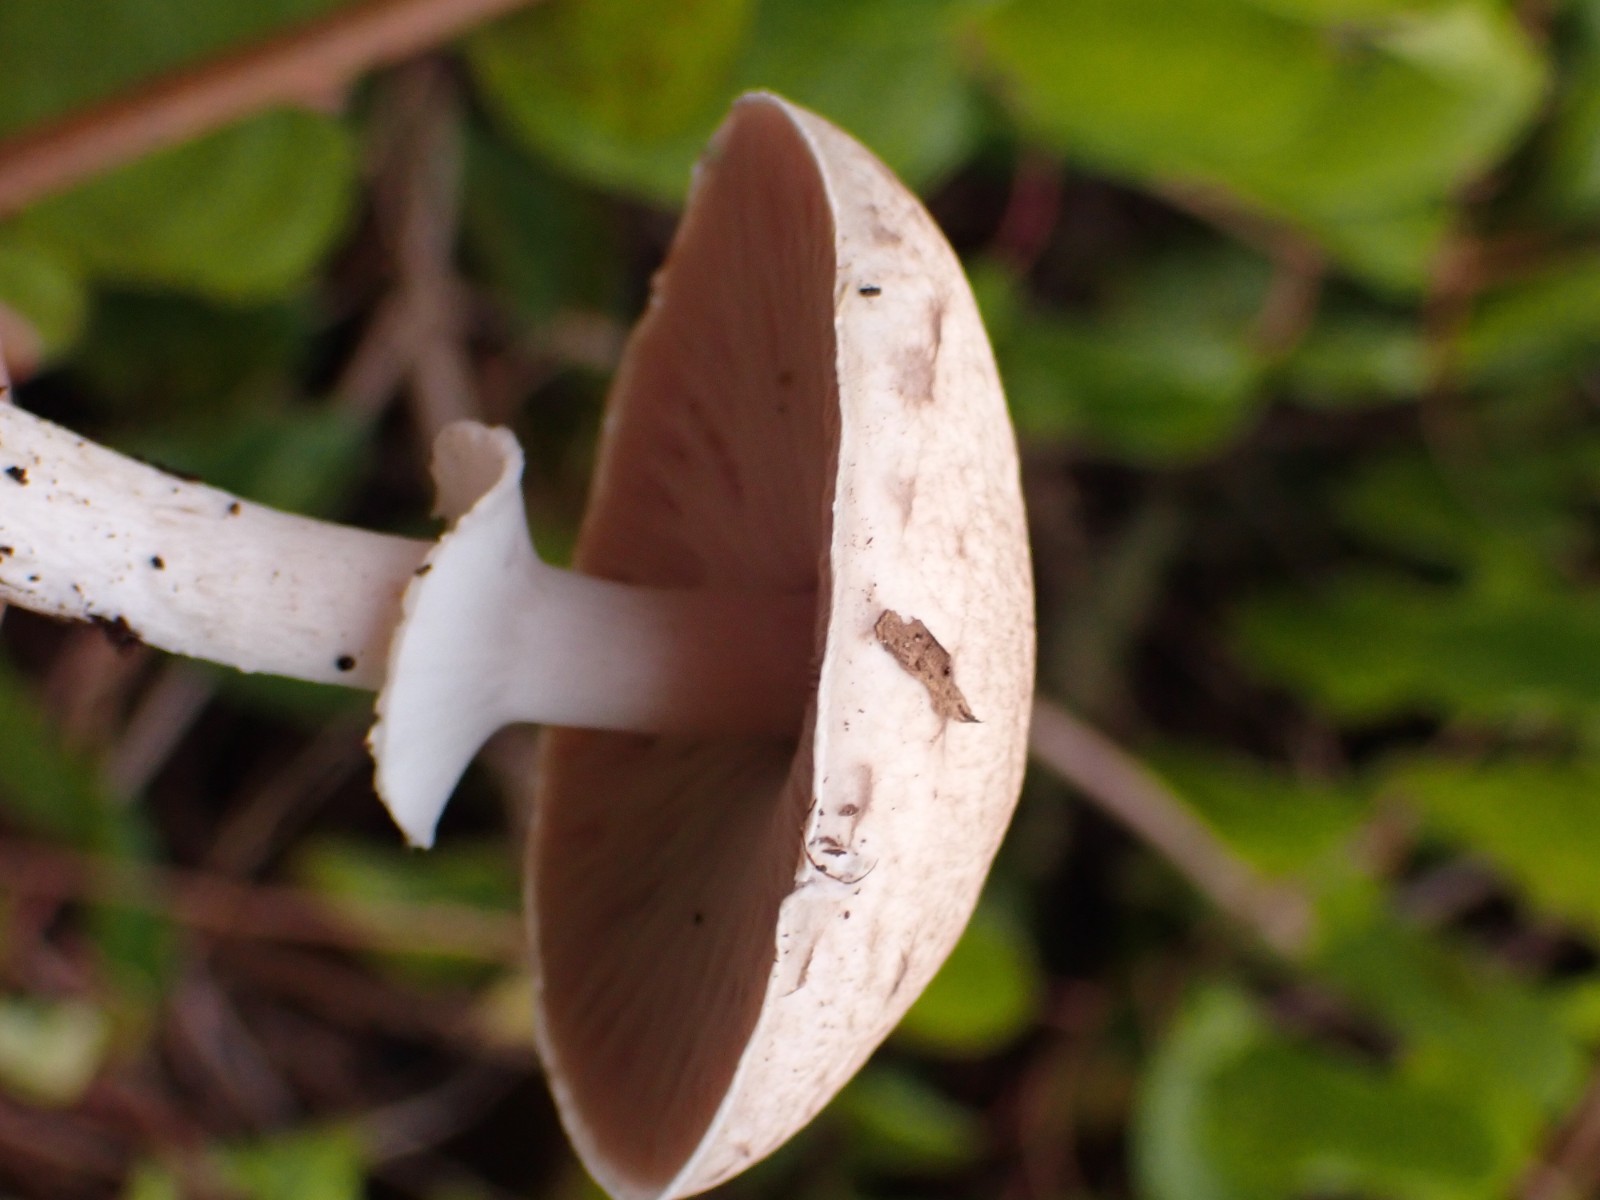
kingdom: Fungi
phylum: Basidiomycota
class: Agaricomycetes
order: Agaricales
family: Agaricaceae
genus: Agaricus
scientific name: Agaricus
